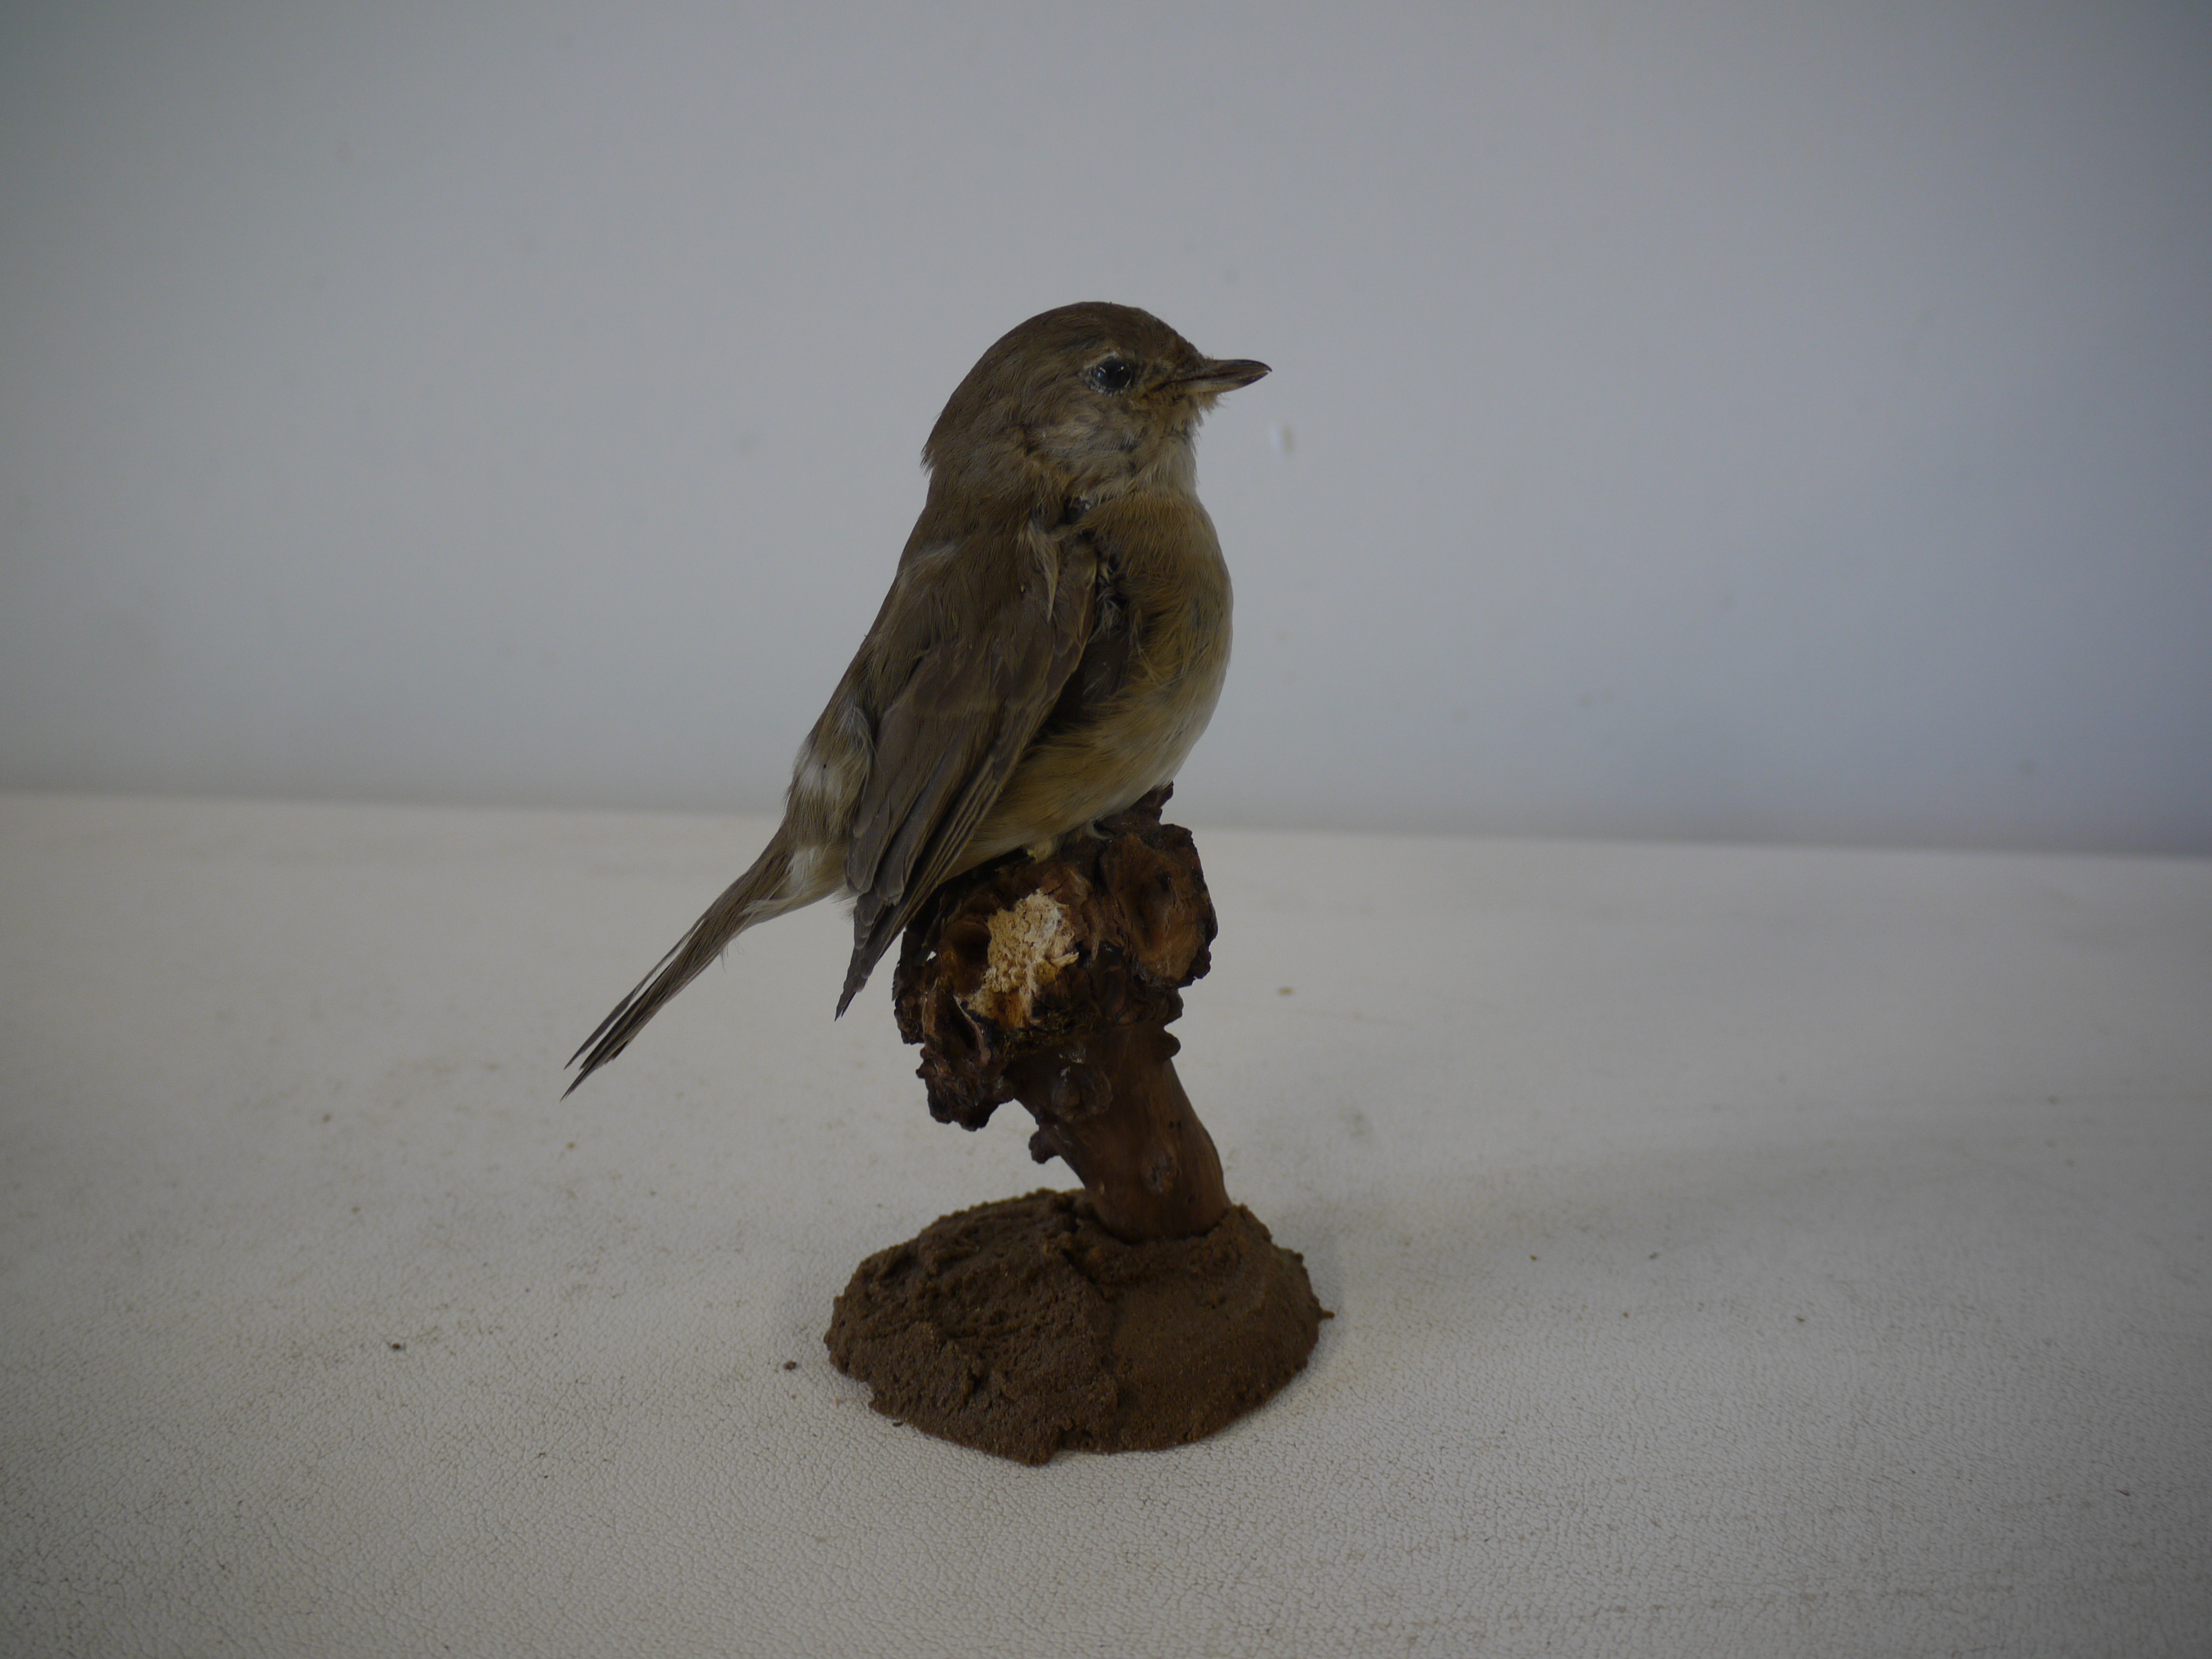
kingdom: Animalia
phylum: Chordata
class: Aves
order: Passeriformes
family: Sylviidae
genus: Sylvia
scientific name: Sylvia borin
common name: Garden warbler
